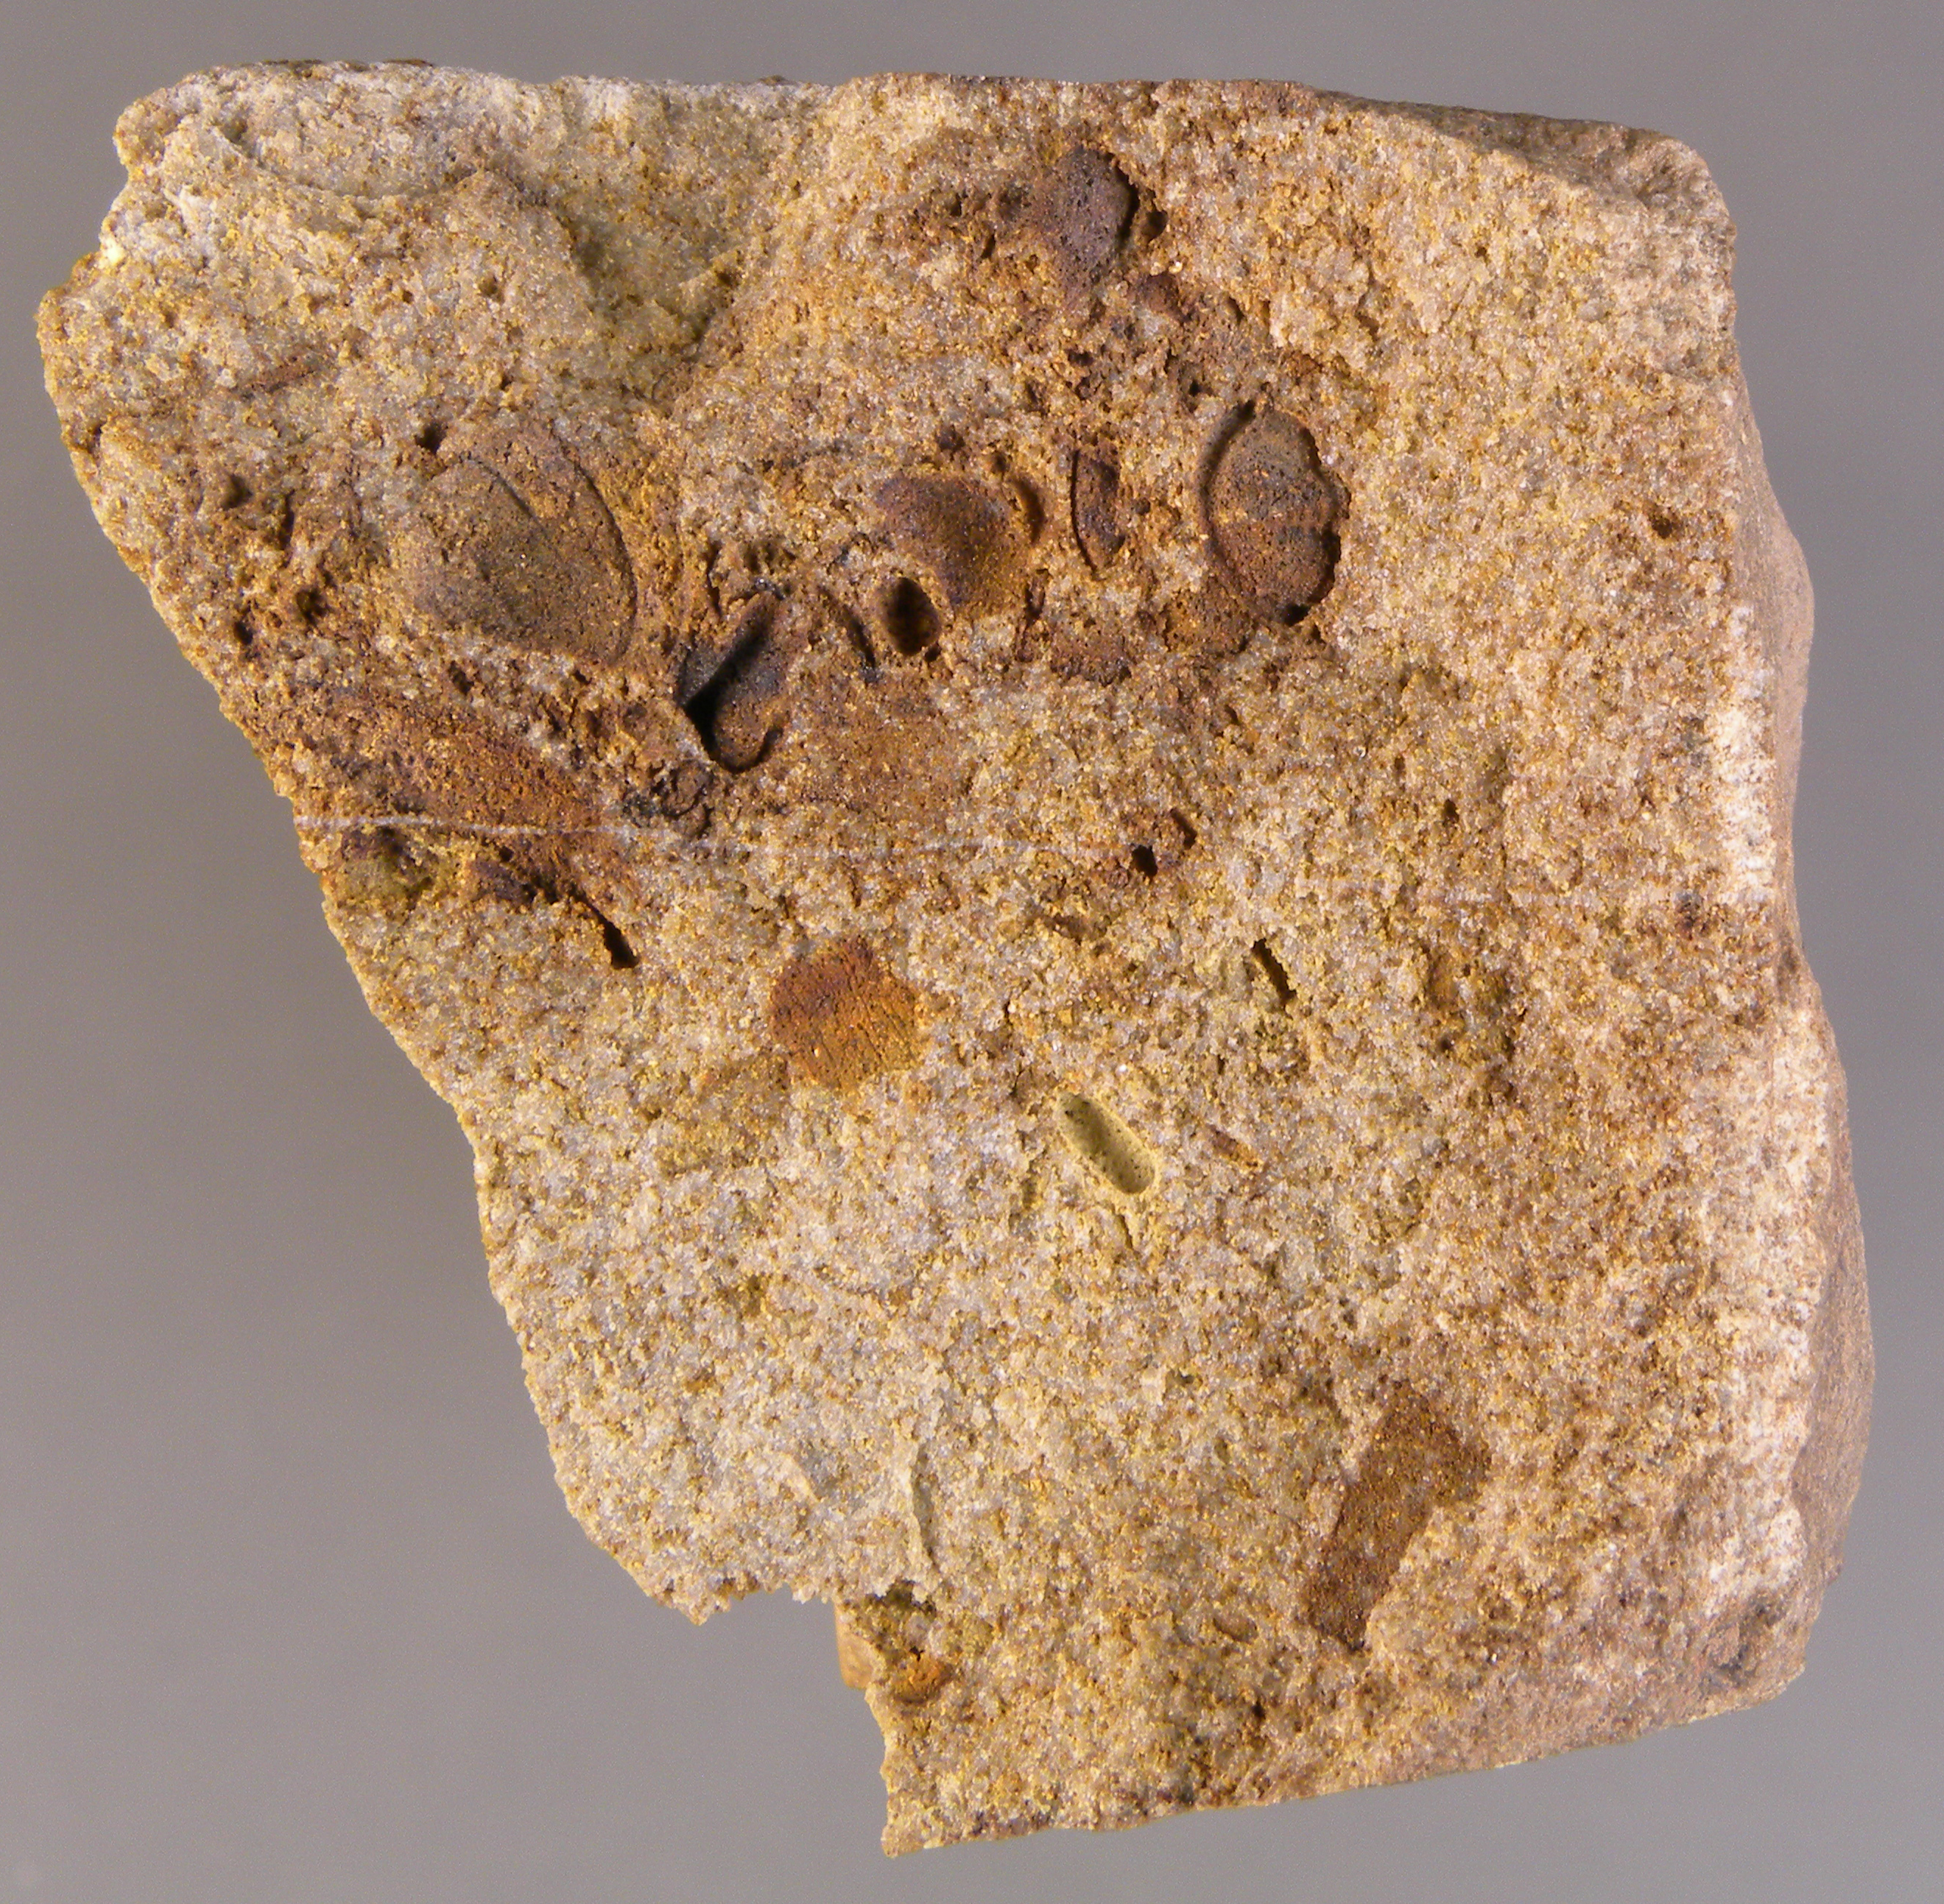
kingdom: Animalia
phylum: Arthropoda
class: Trilobita
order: Phacopida
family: Acastidae
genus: Acastava
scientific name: Acastava
